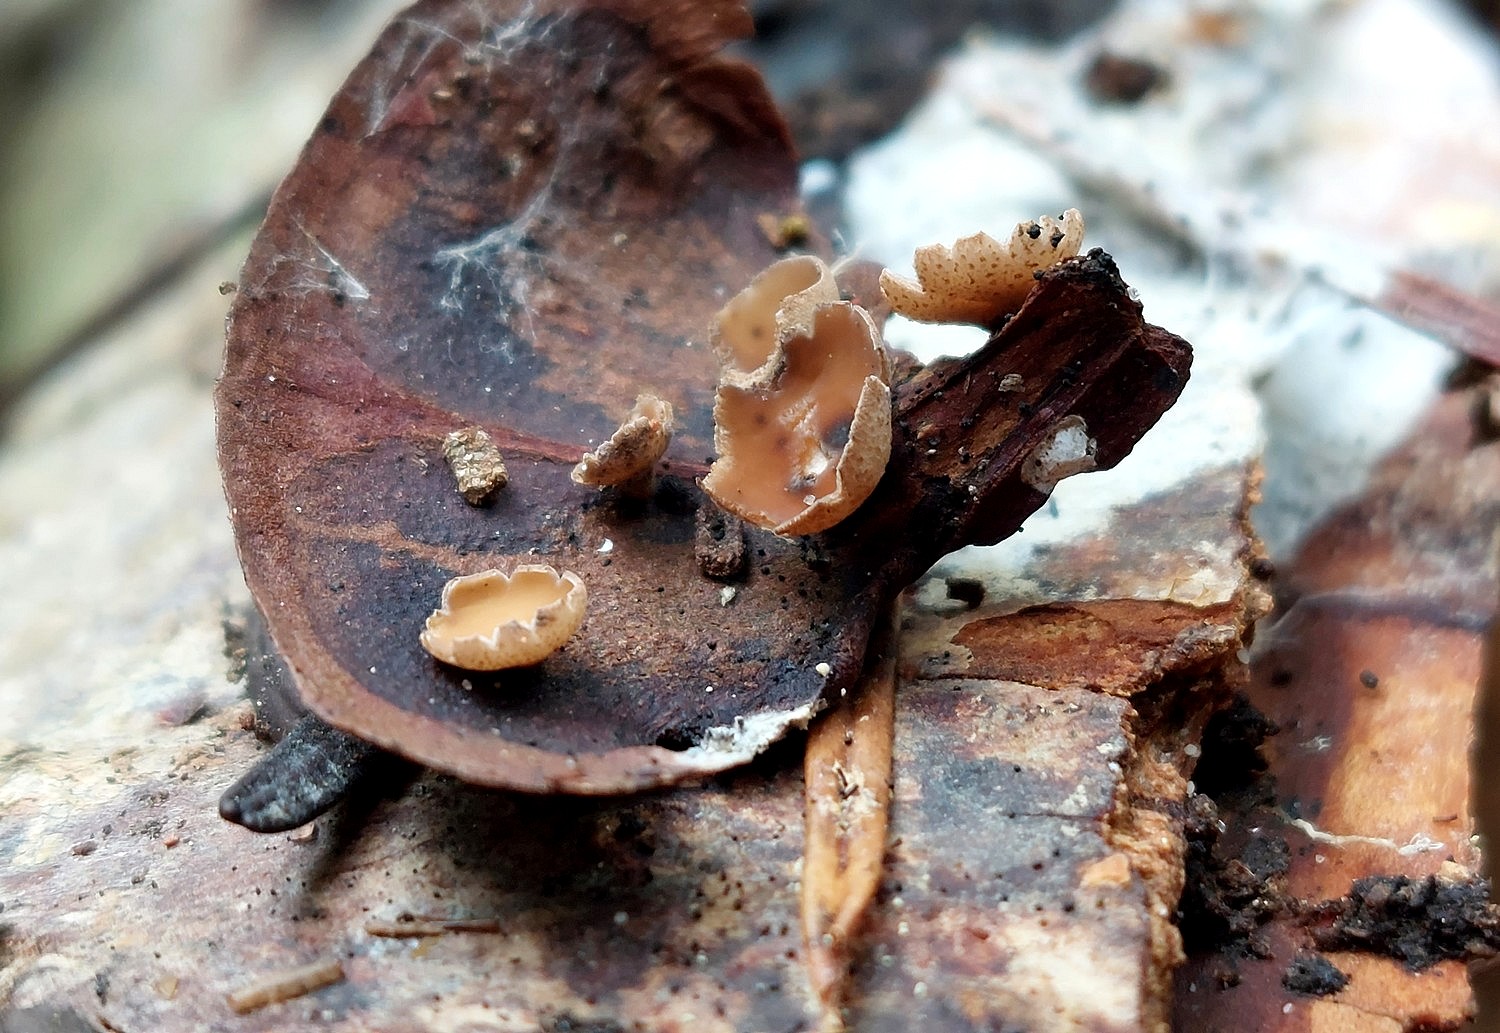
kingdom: Fungi
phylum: Ascomycota
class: Leotiomycetes
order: Helotiales
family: Sclerotiniaceae
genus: Ciboria
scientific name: Ciboria rufofusca
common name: kogleskæl-knoldskive
